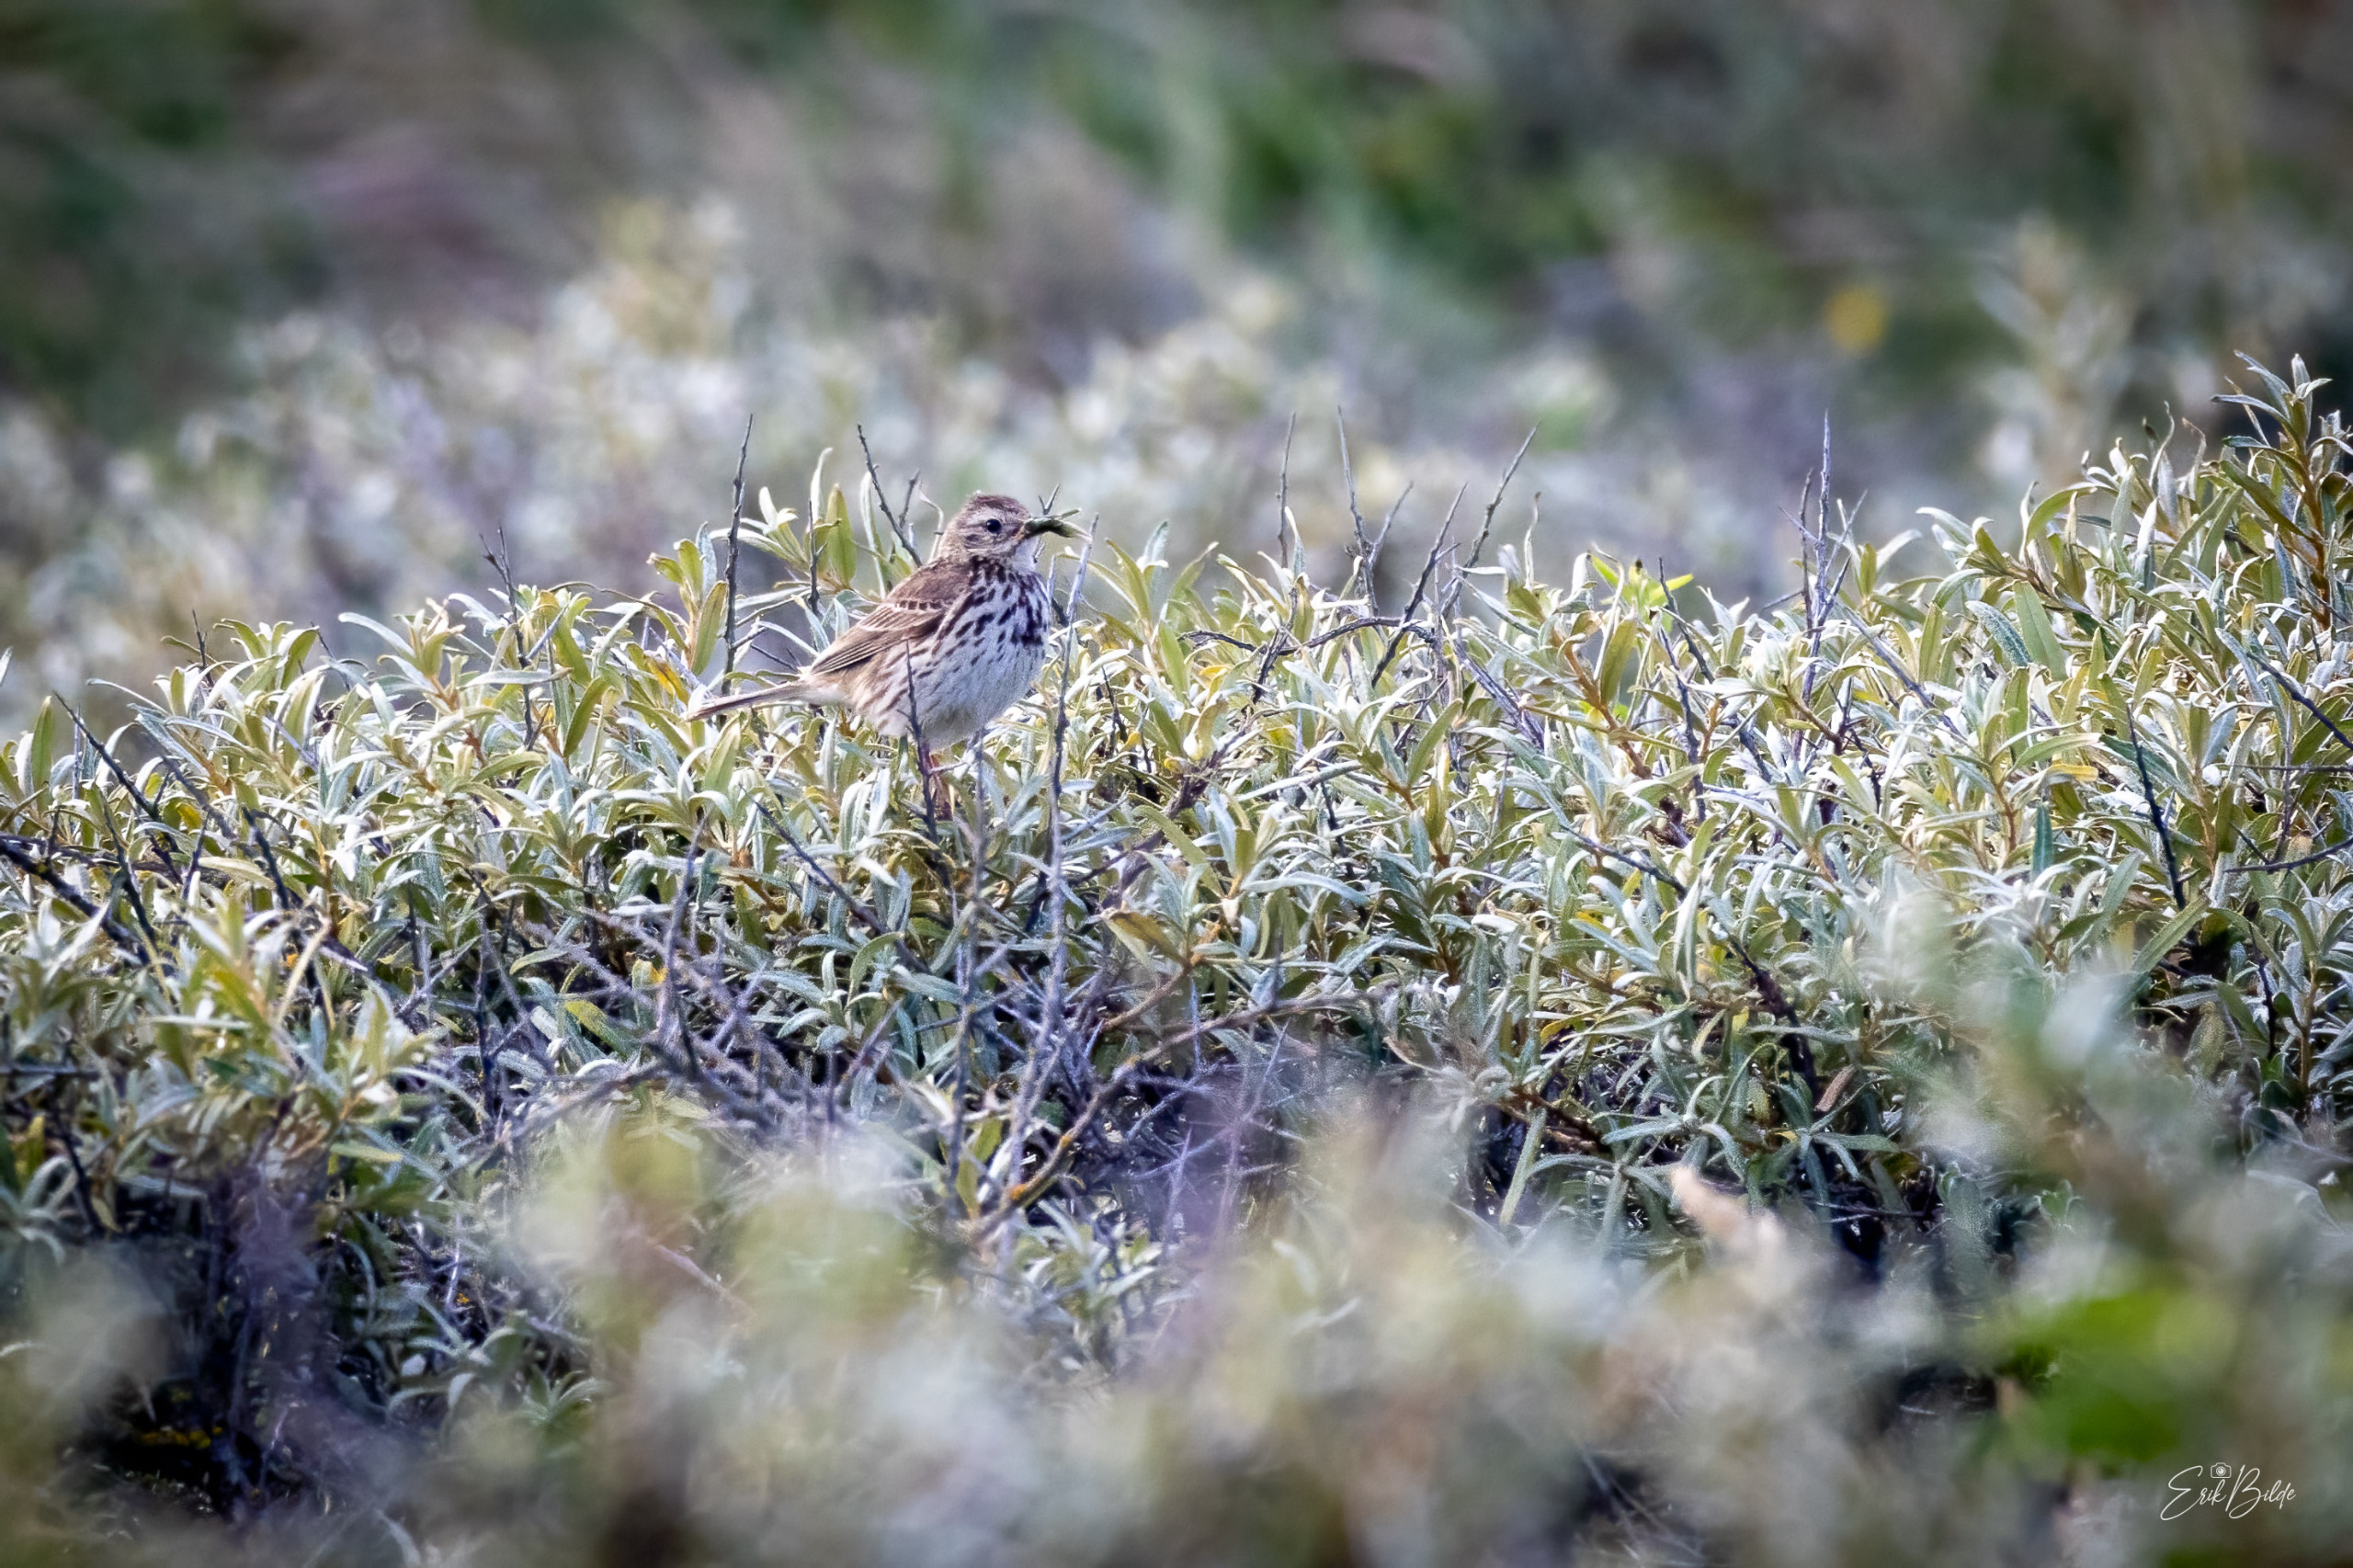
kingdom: Animalia
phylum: Chordata
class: Aves
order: Passeriformes
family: Motacillidae
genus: Anthus
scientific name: Anthus pratensis
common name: Engpiber
